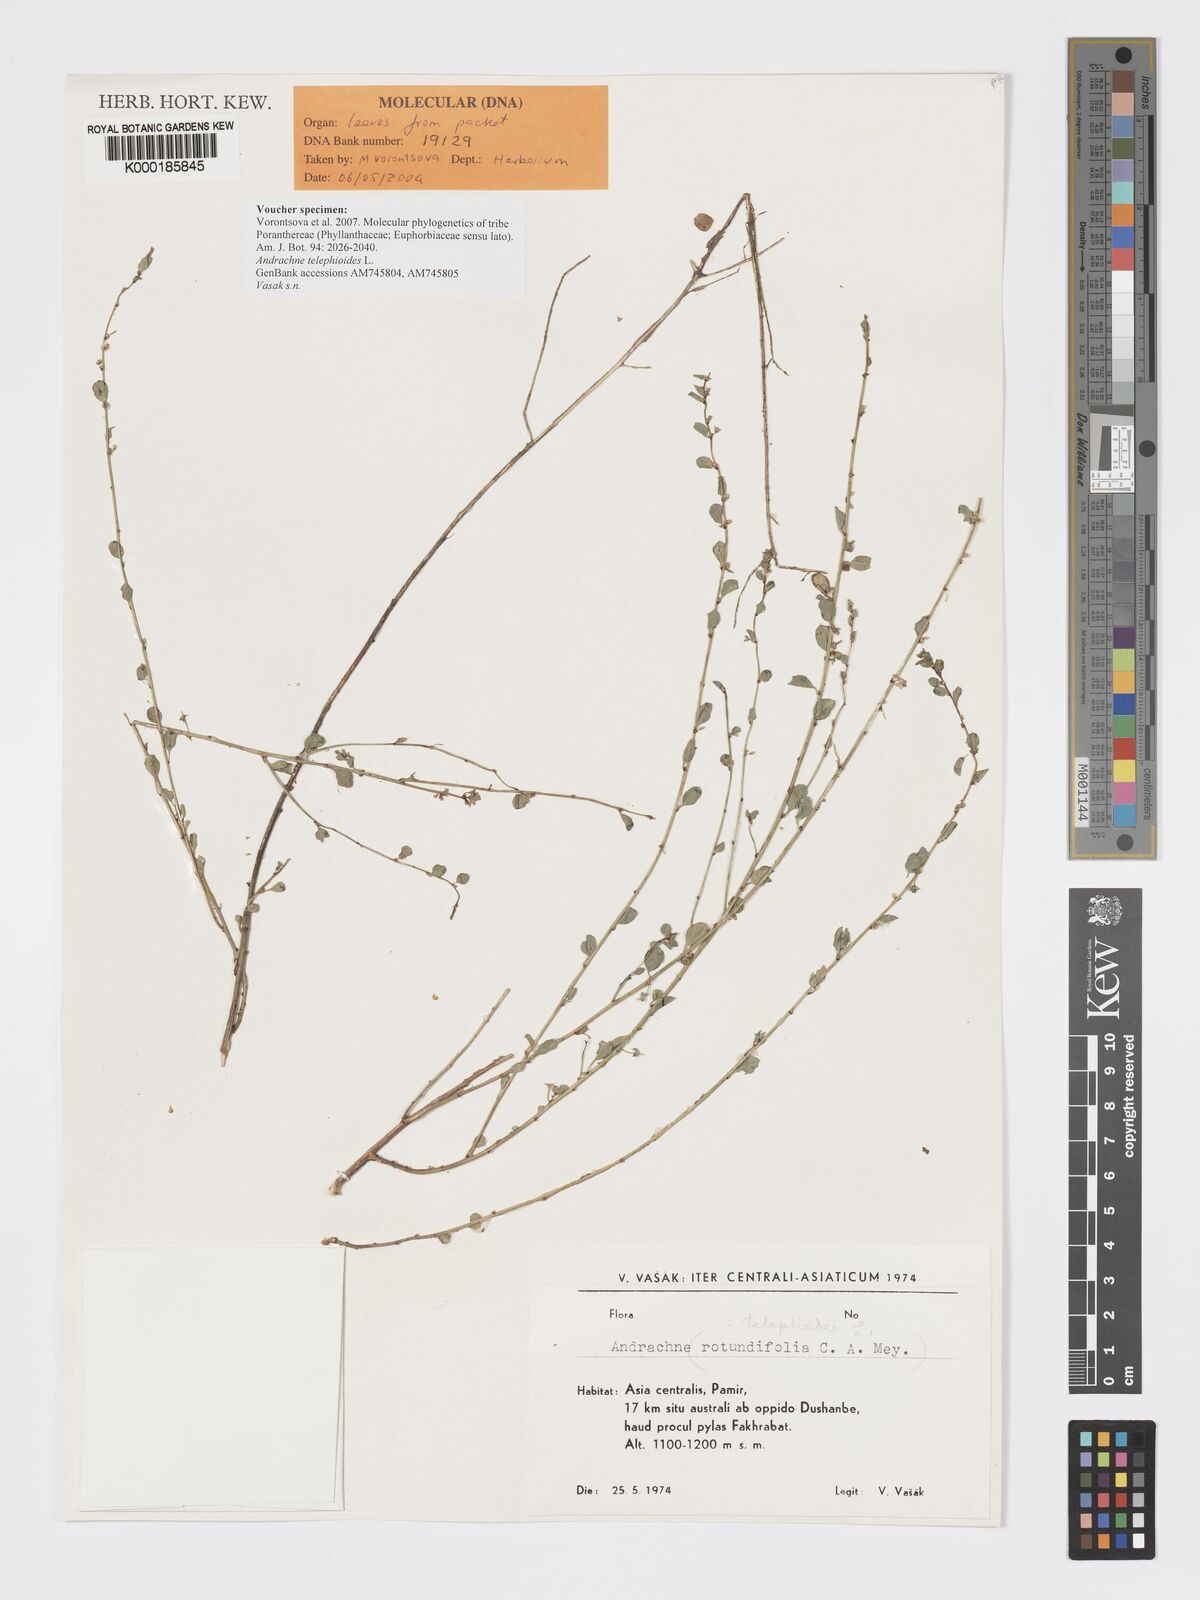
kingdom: Plantae
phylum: Tracheophyta
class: Magnoliopsida
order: Malpighiales
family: Phyllanthaceae
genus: Andrachne
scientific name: Andrachne telephioides
